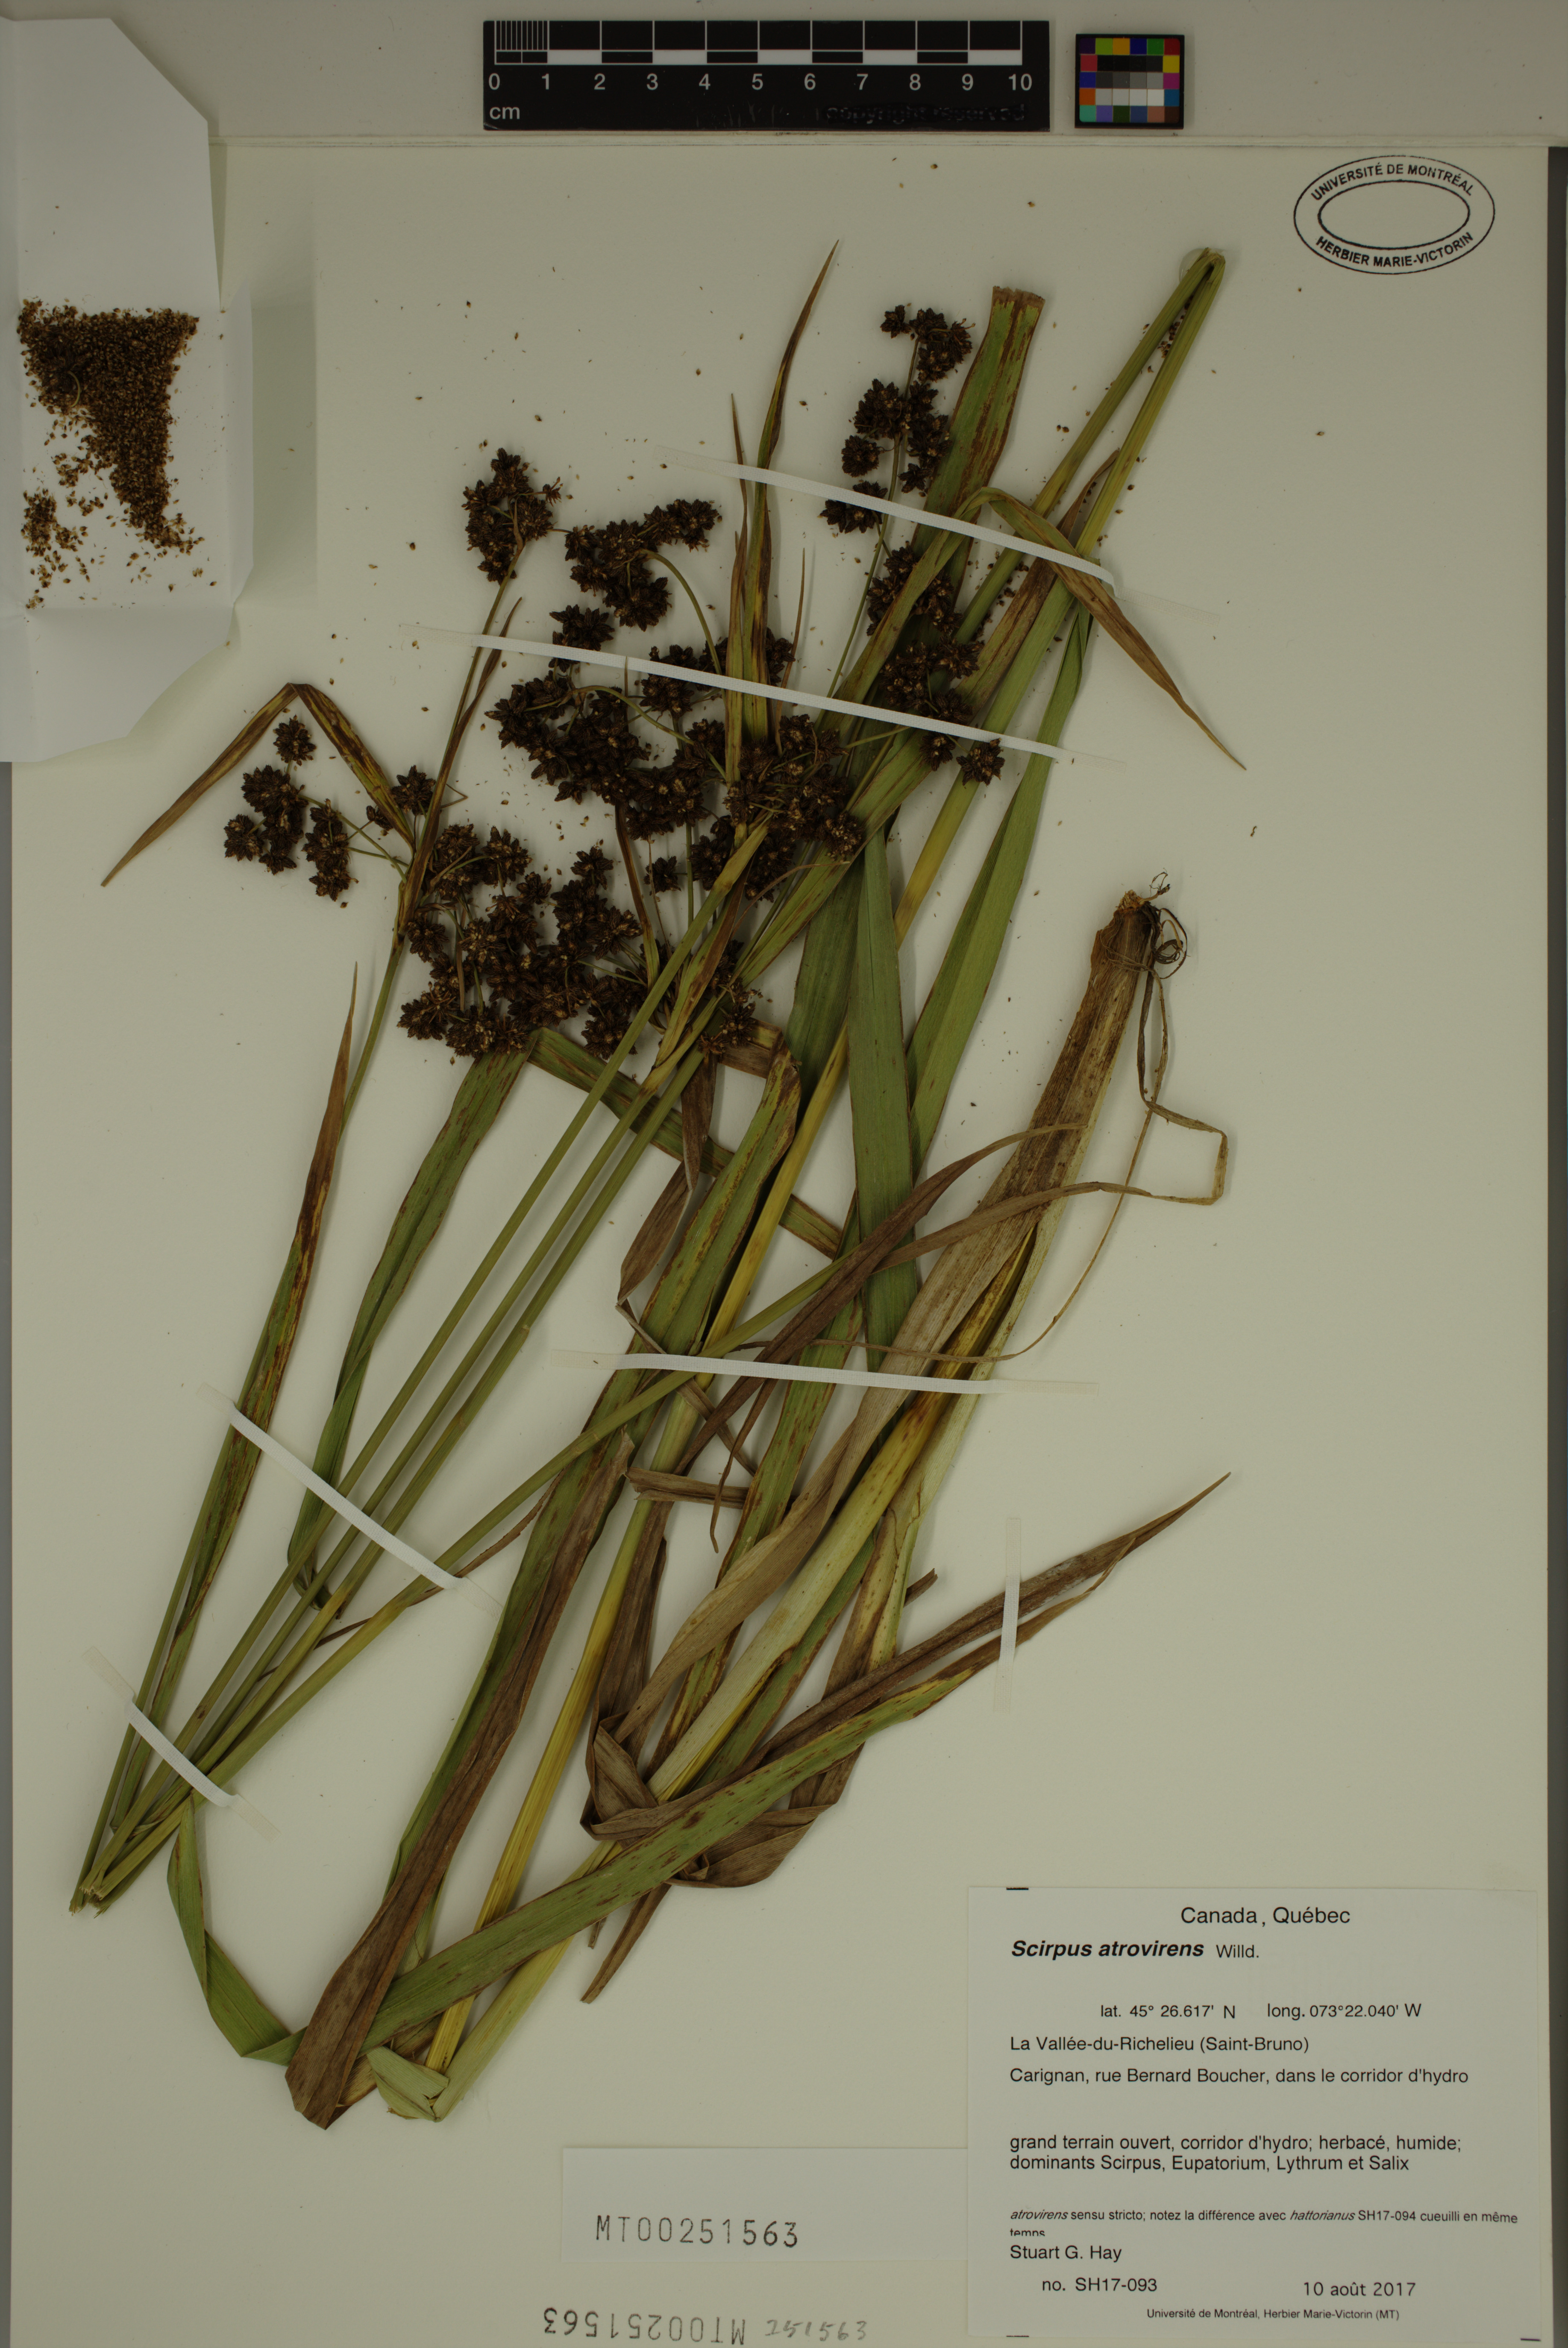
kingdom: Plantae
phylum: Tracheophyta
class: Liliopsida
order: Poales
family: Cyperaceae
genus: Scirpus
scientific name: Scirpus atrovirens
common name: Black bulrush
